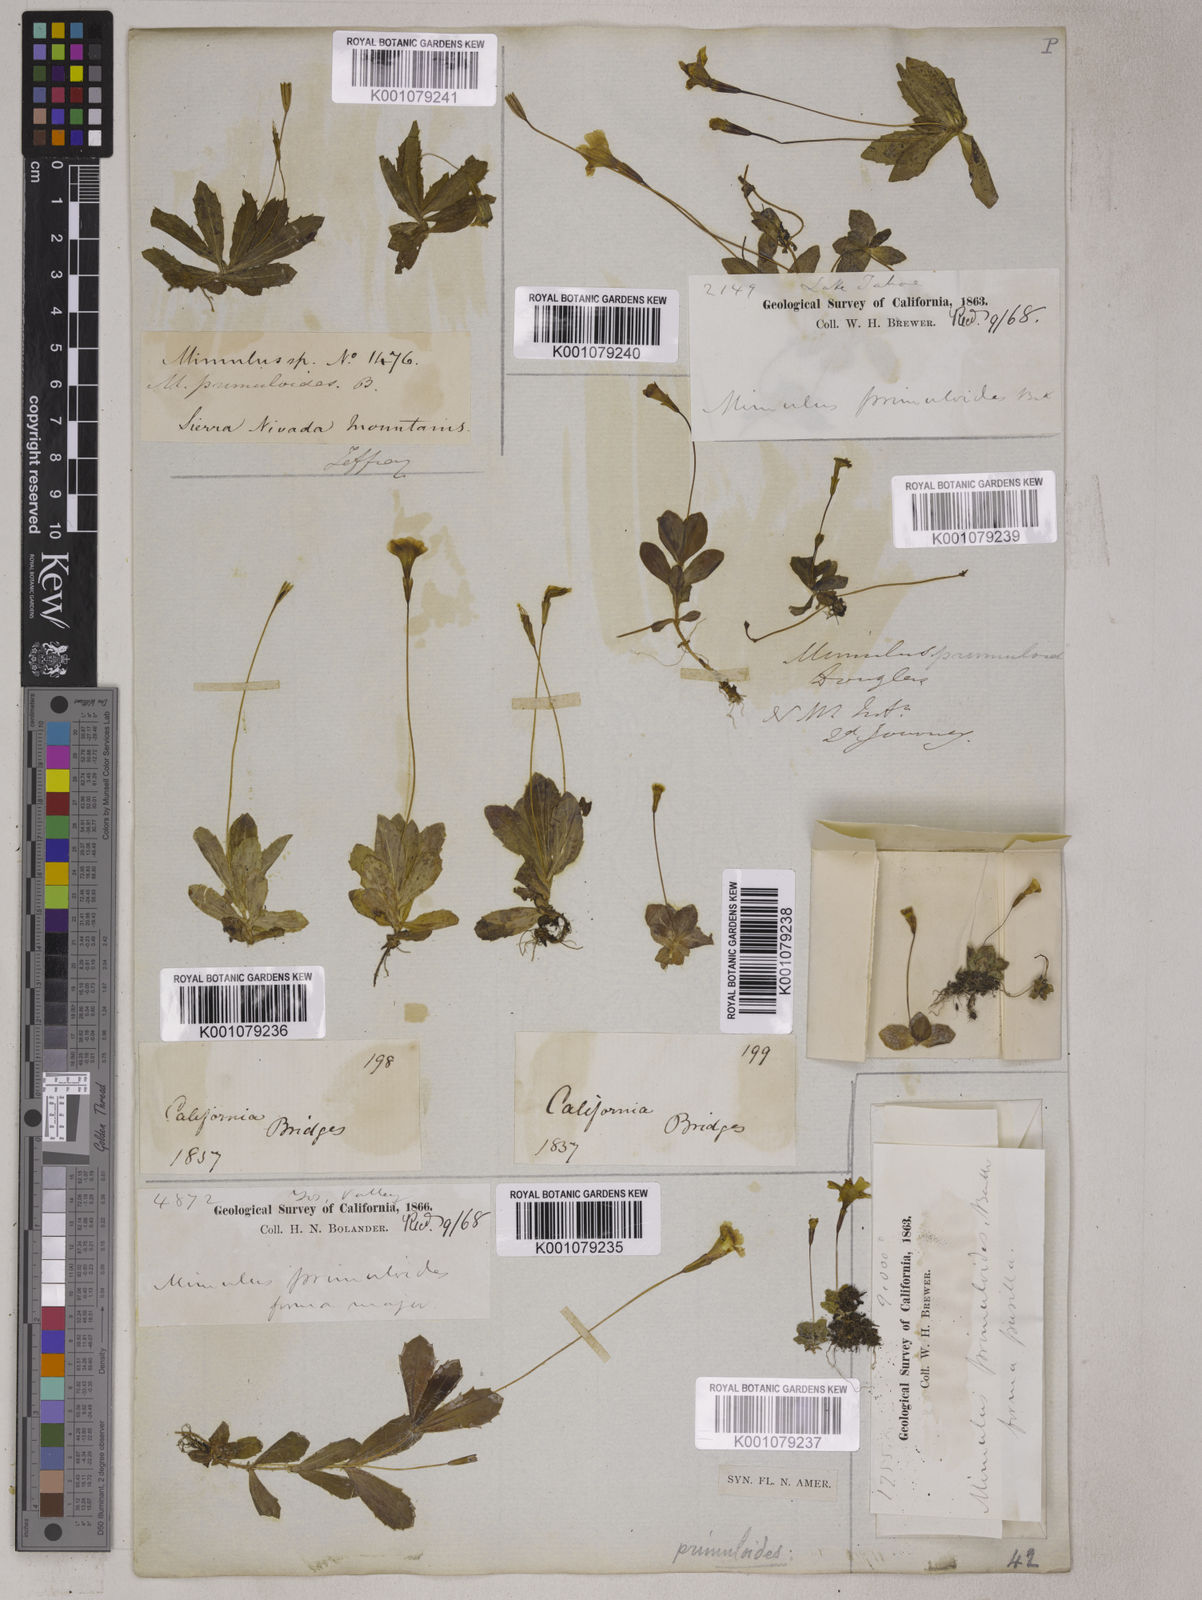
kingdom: Plantae
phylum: Tracheophyta
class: Magnoliopsida
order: Lamiales
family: Phrymaceae
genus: Erythranthe
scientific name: Erythranthe primuloides
